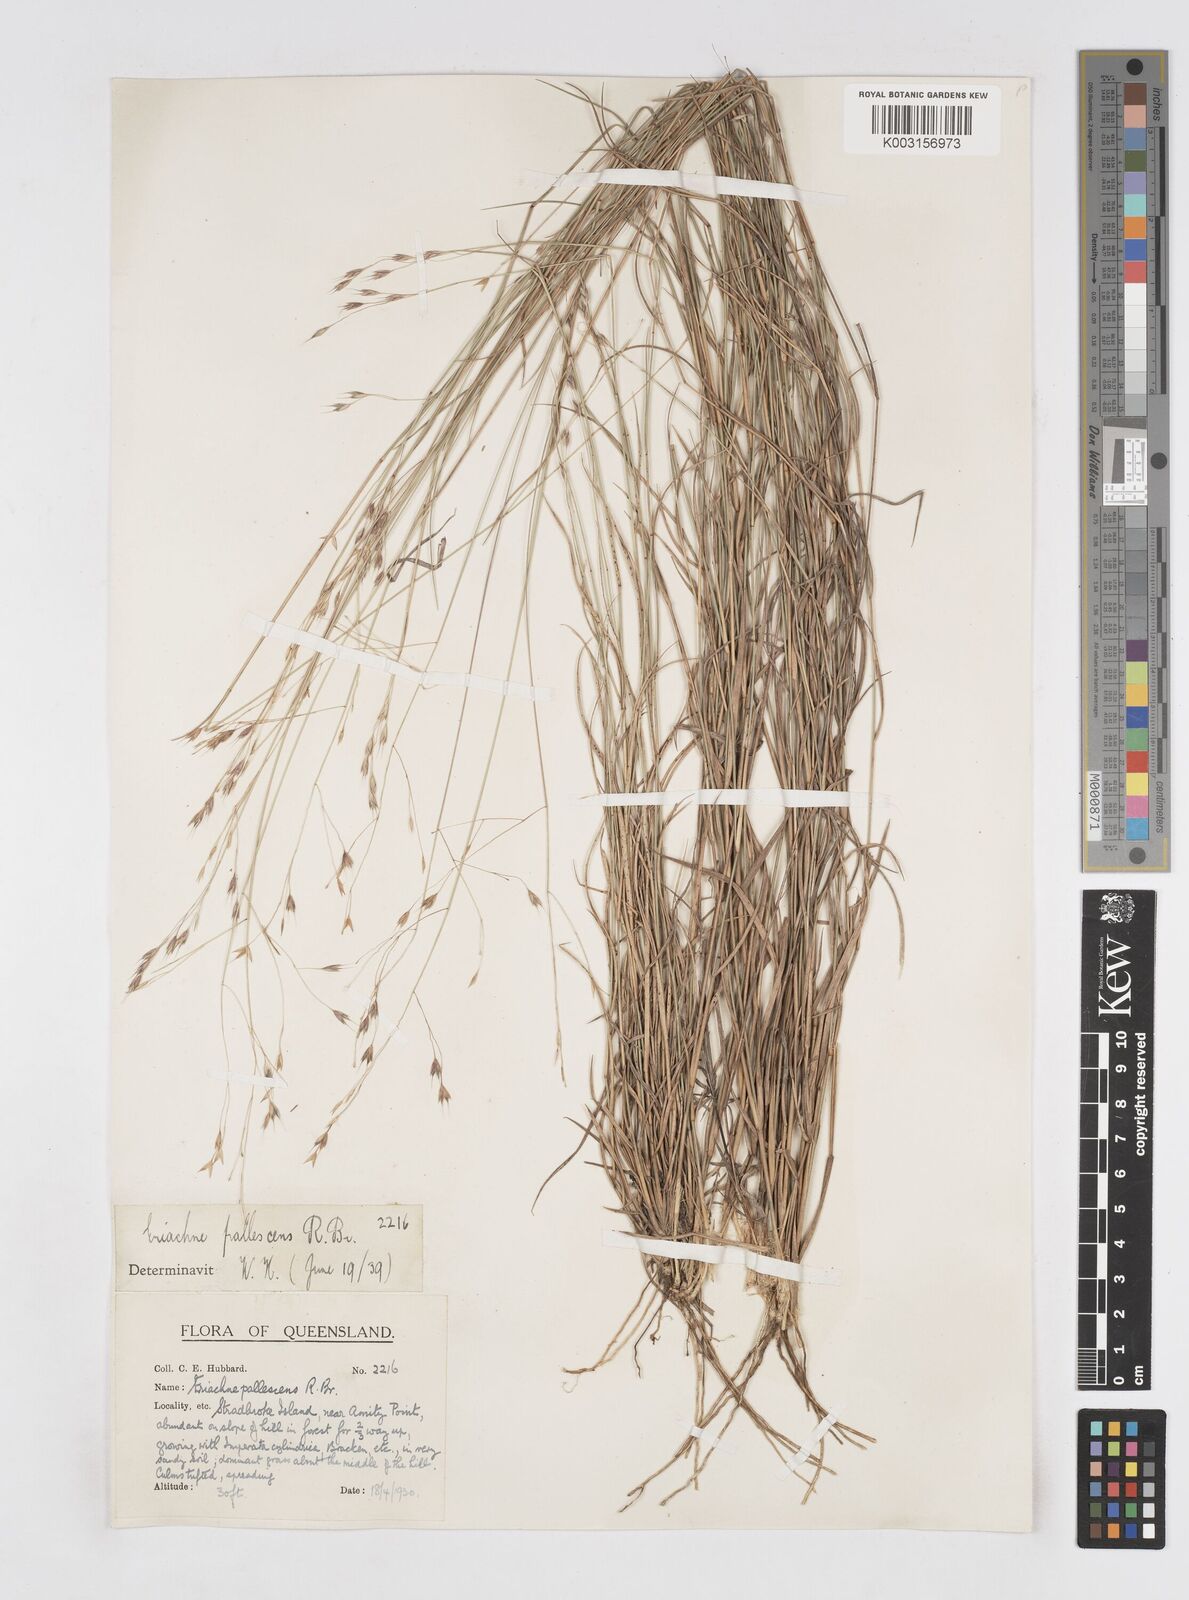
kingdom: Plantae
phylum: Tracheophyta
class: Liliopsida
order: Poales
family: Poaceae
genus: Eriachne
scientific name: Eriachne pallescens
